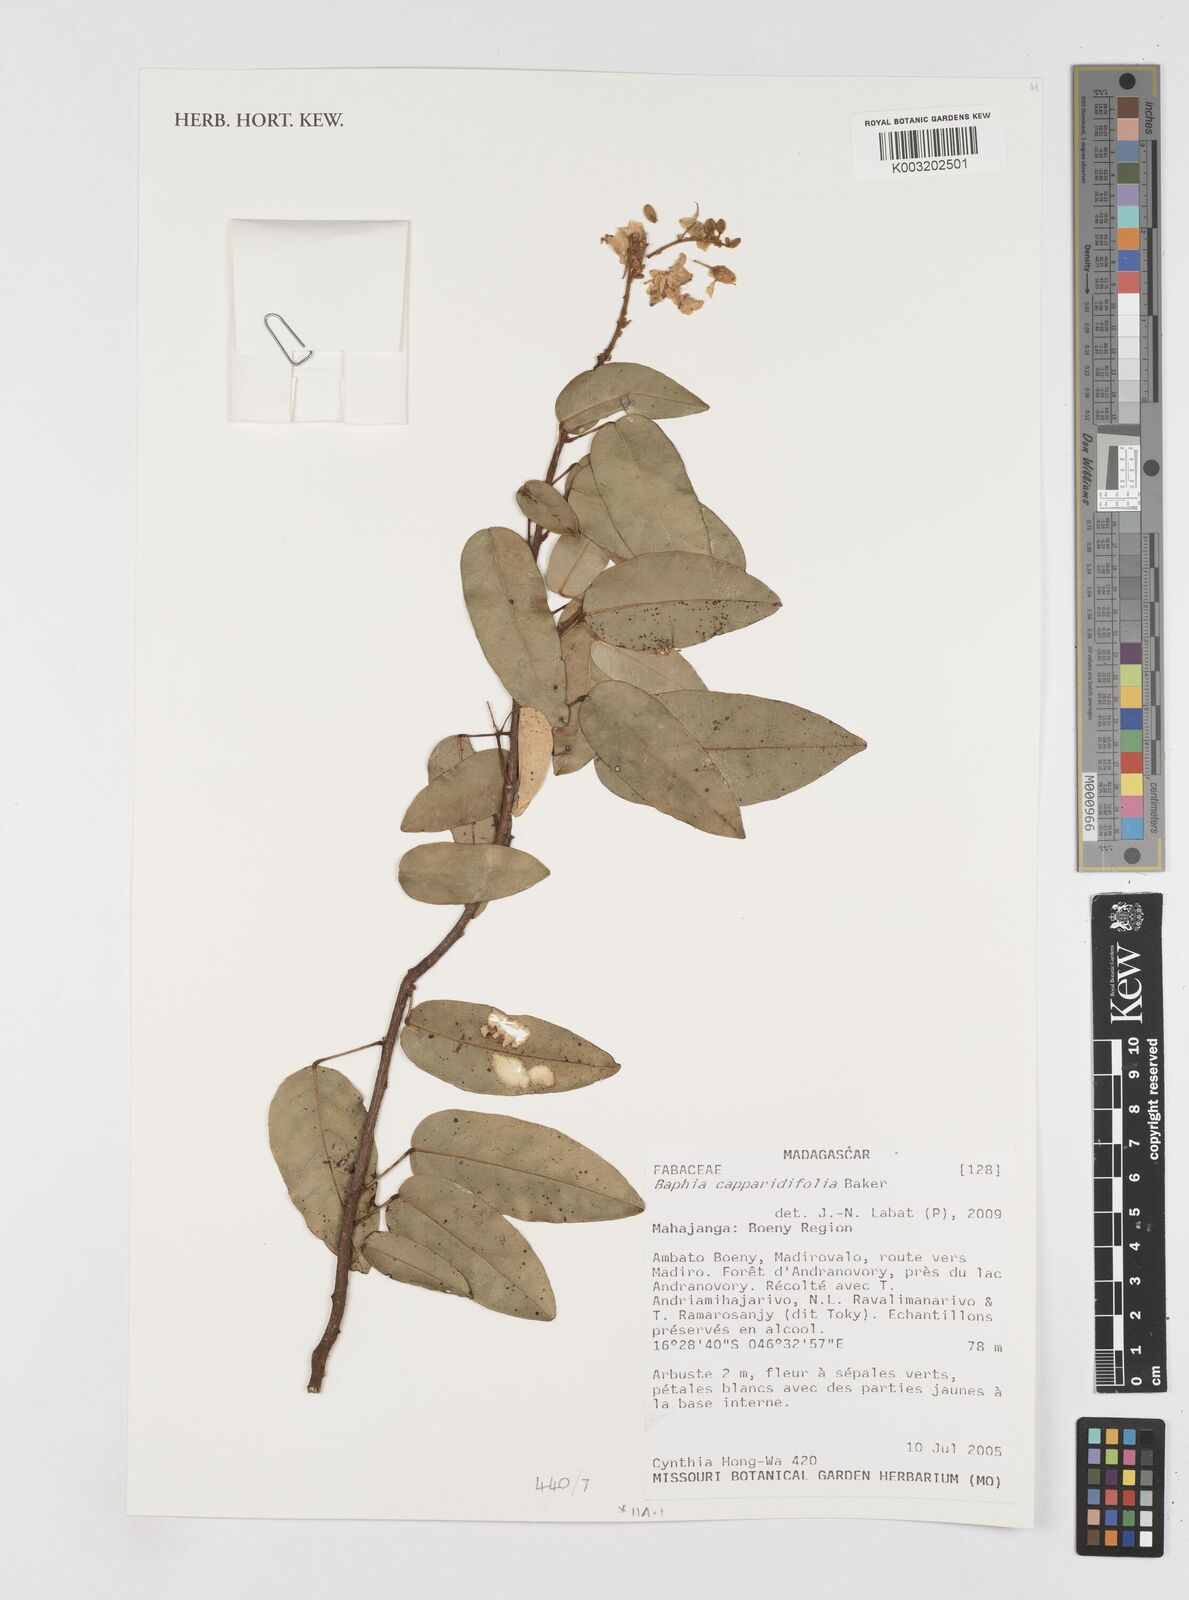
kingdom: Plantae
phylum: Tracheophyta
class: Magnoliopsida
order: Fabales
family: Fabaceae
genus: Baphia
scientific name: Baphia capparidifolia
